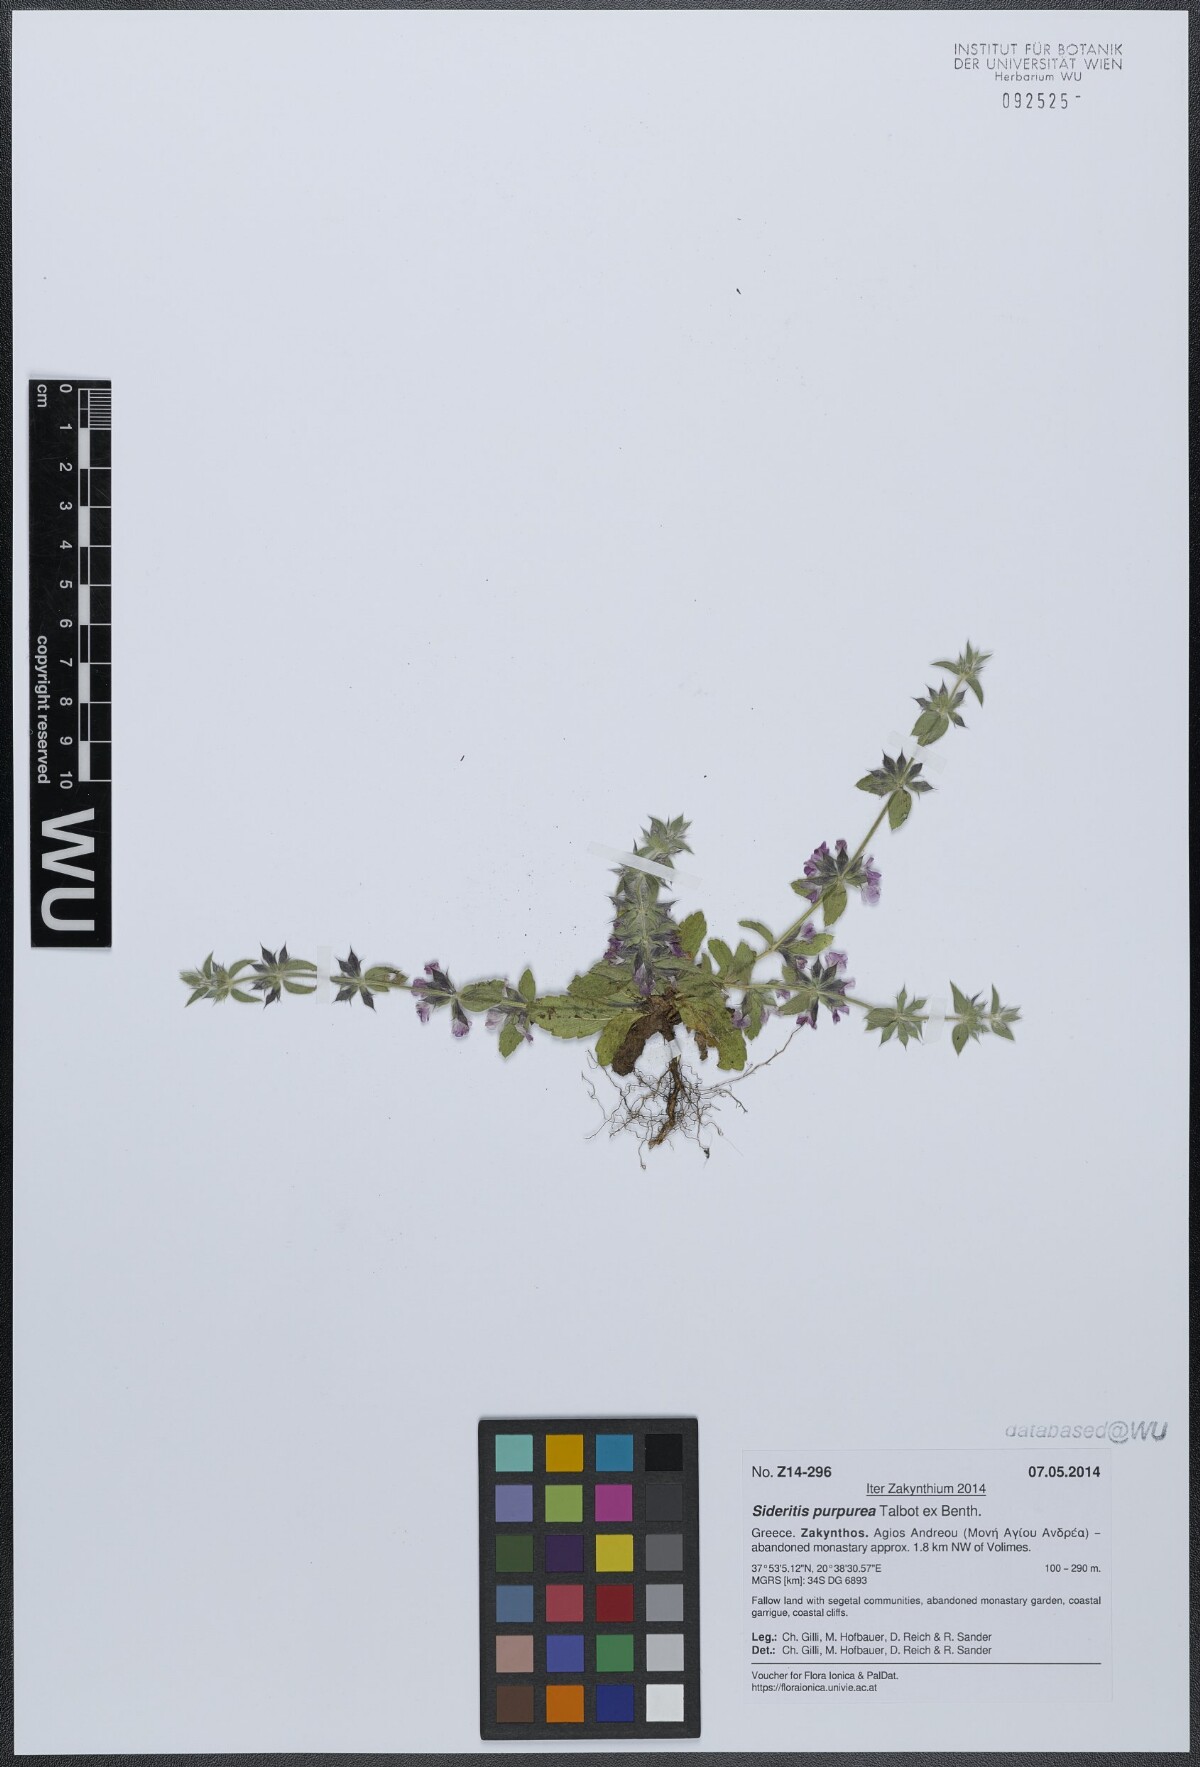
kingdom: Plantae
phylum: Tracheophyta
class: Magnoliopsida
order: Lamiales
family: Lamiaceae
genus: Sideritis
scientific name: Sideritis romana
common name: Simplebeak ironwort
